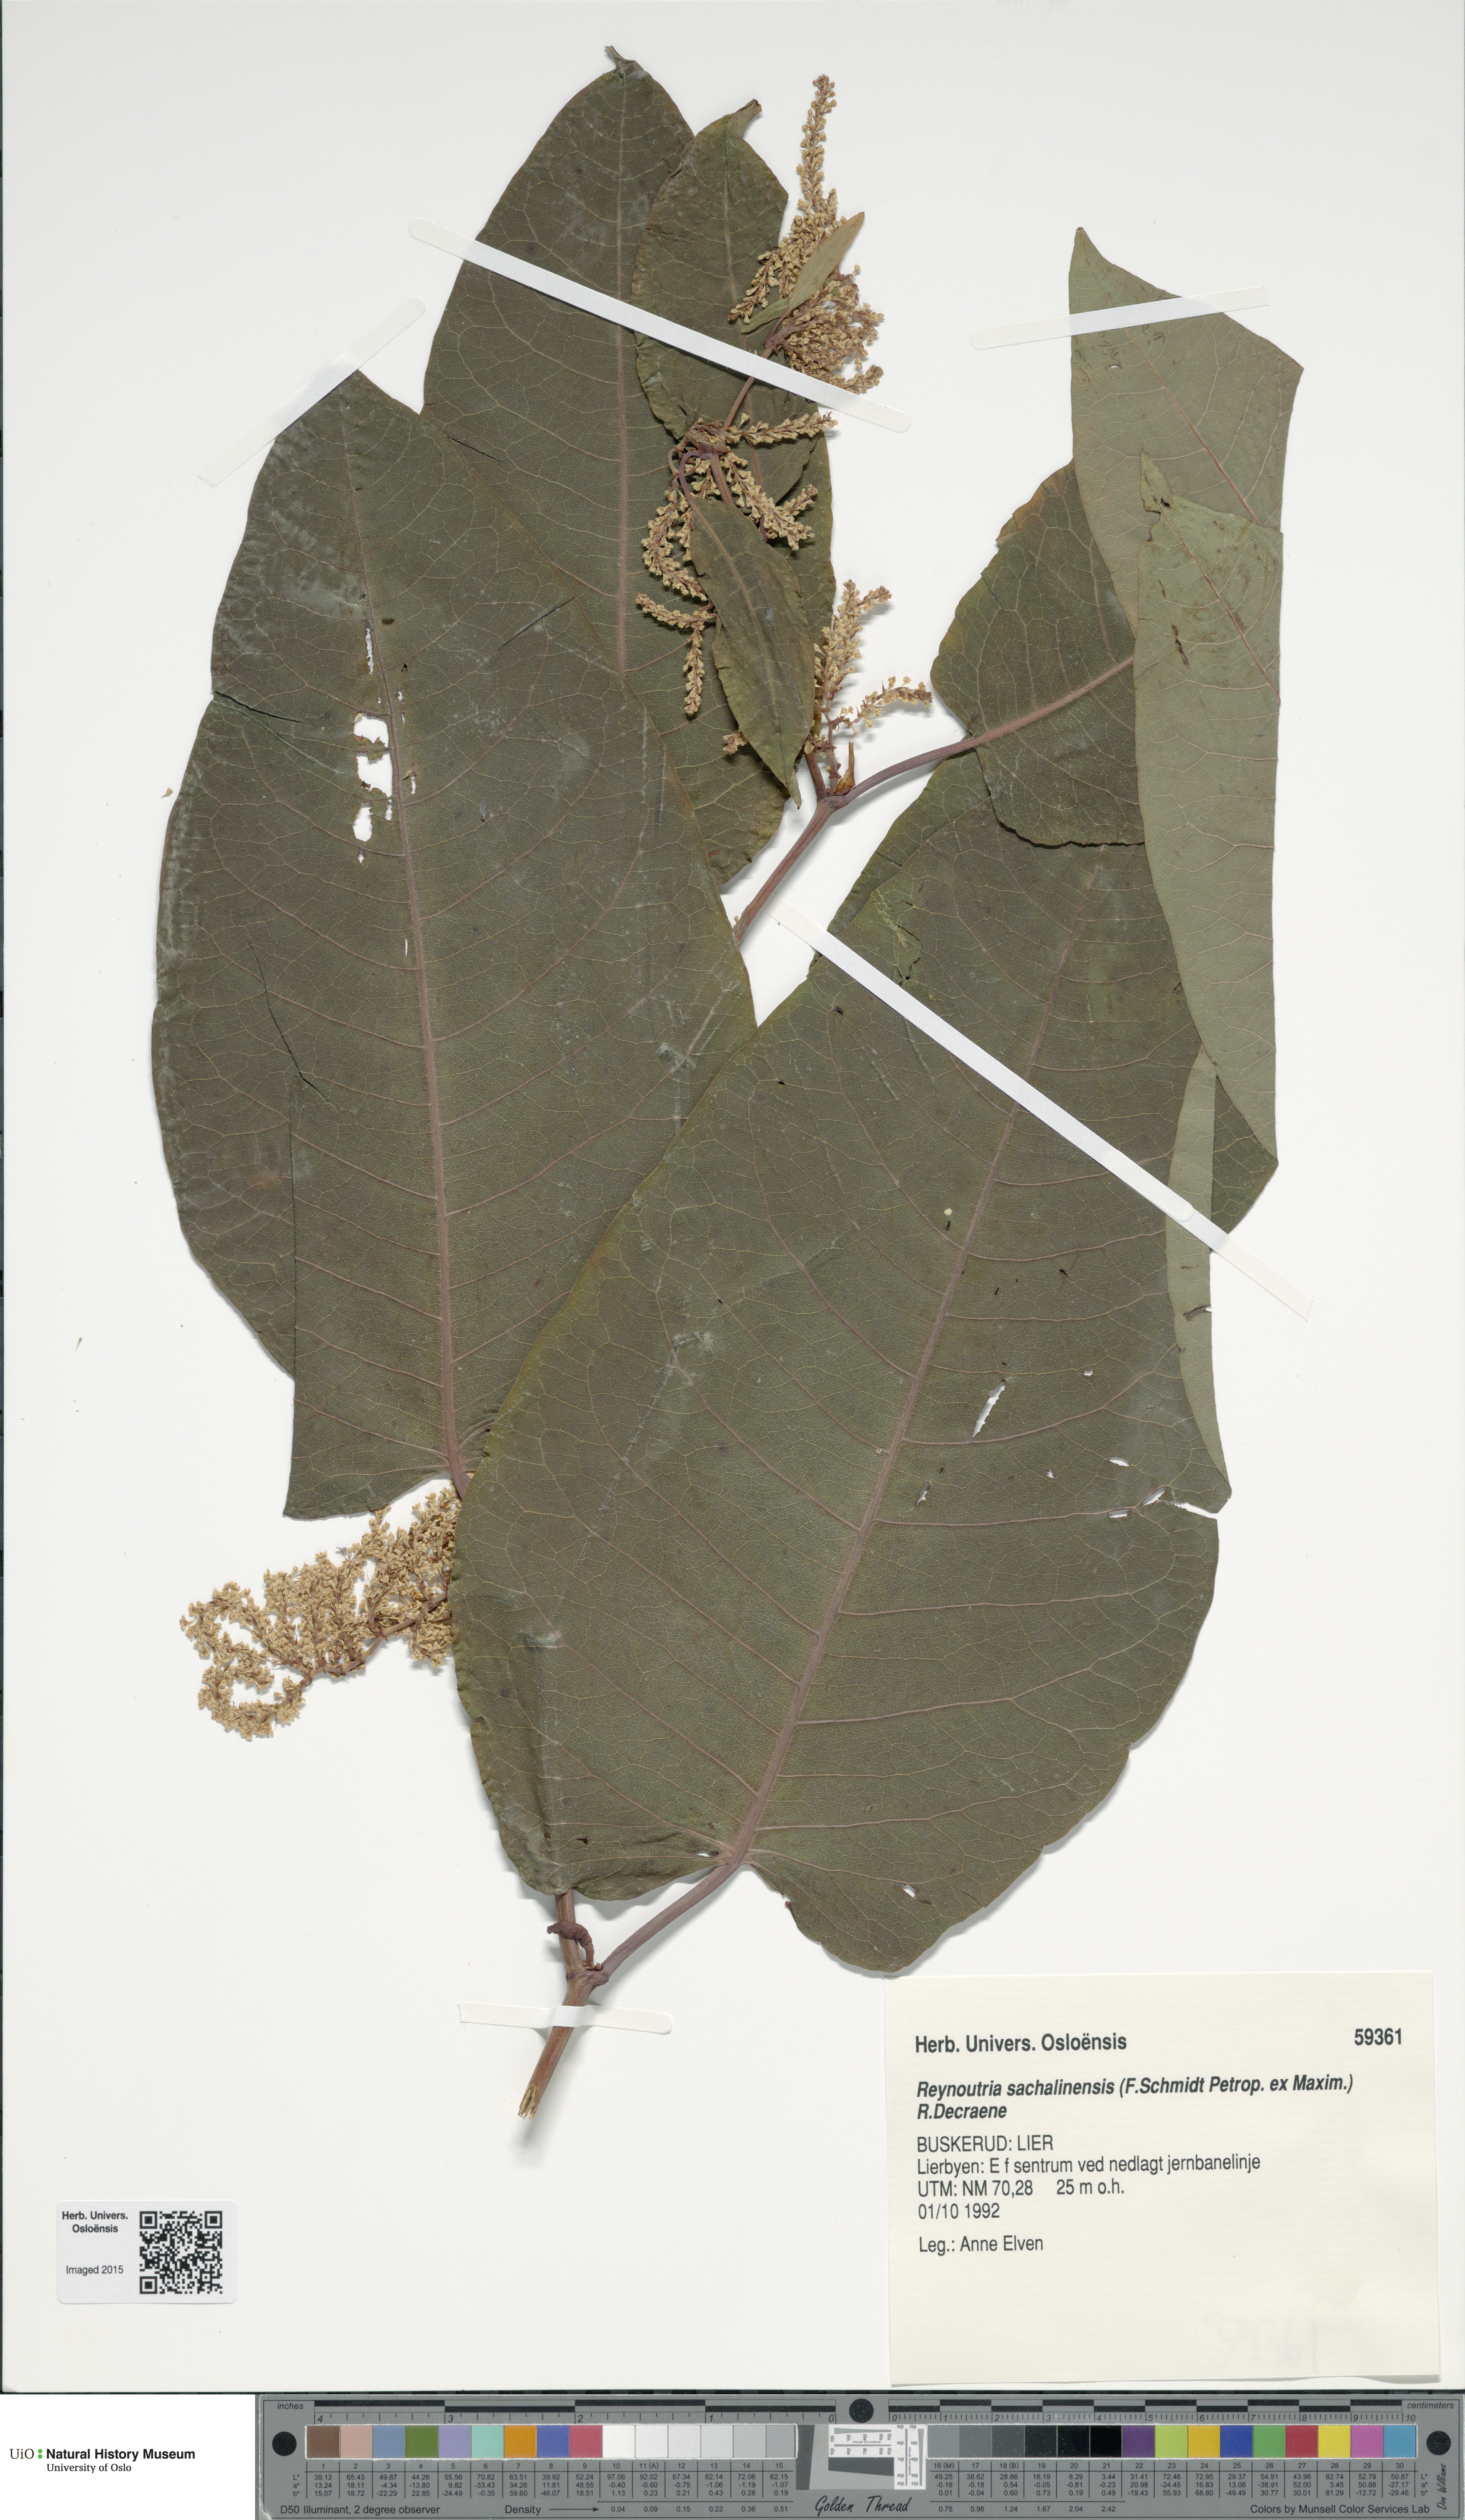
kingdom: Plantae
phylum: Tracheophyta
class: Magnoliopsida
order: Caryophyllales
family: Polygonaceae
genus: Reynoutria
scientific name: Reynoutria sachalinensis
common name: Giant knotweed
